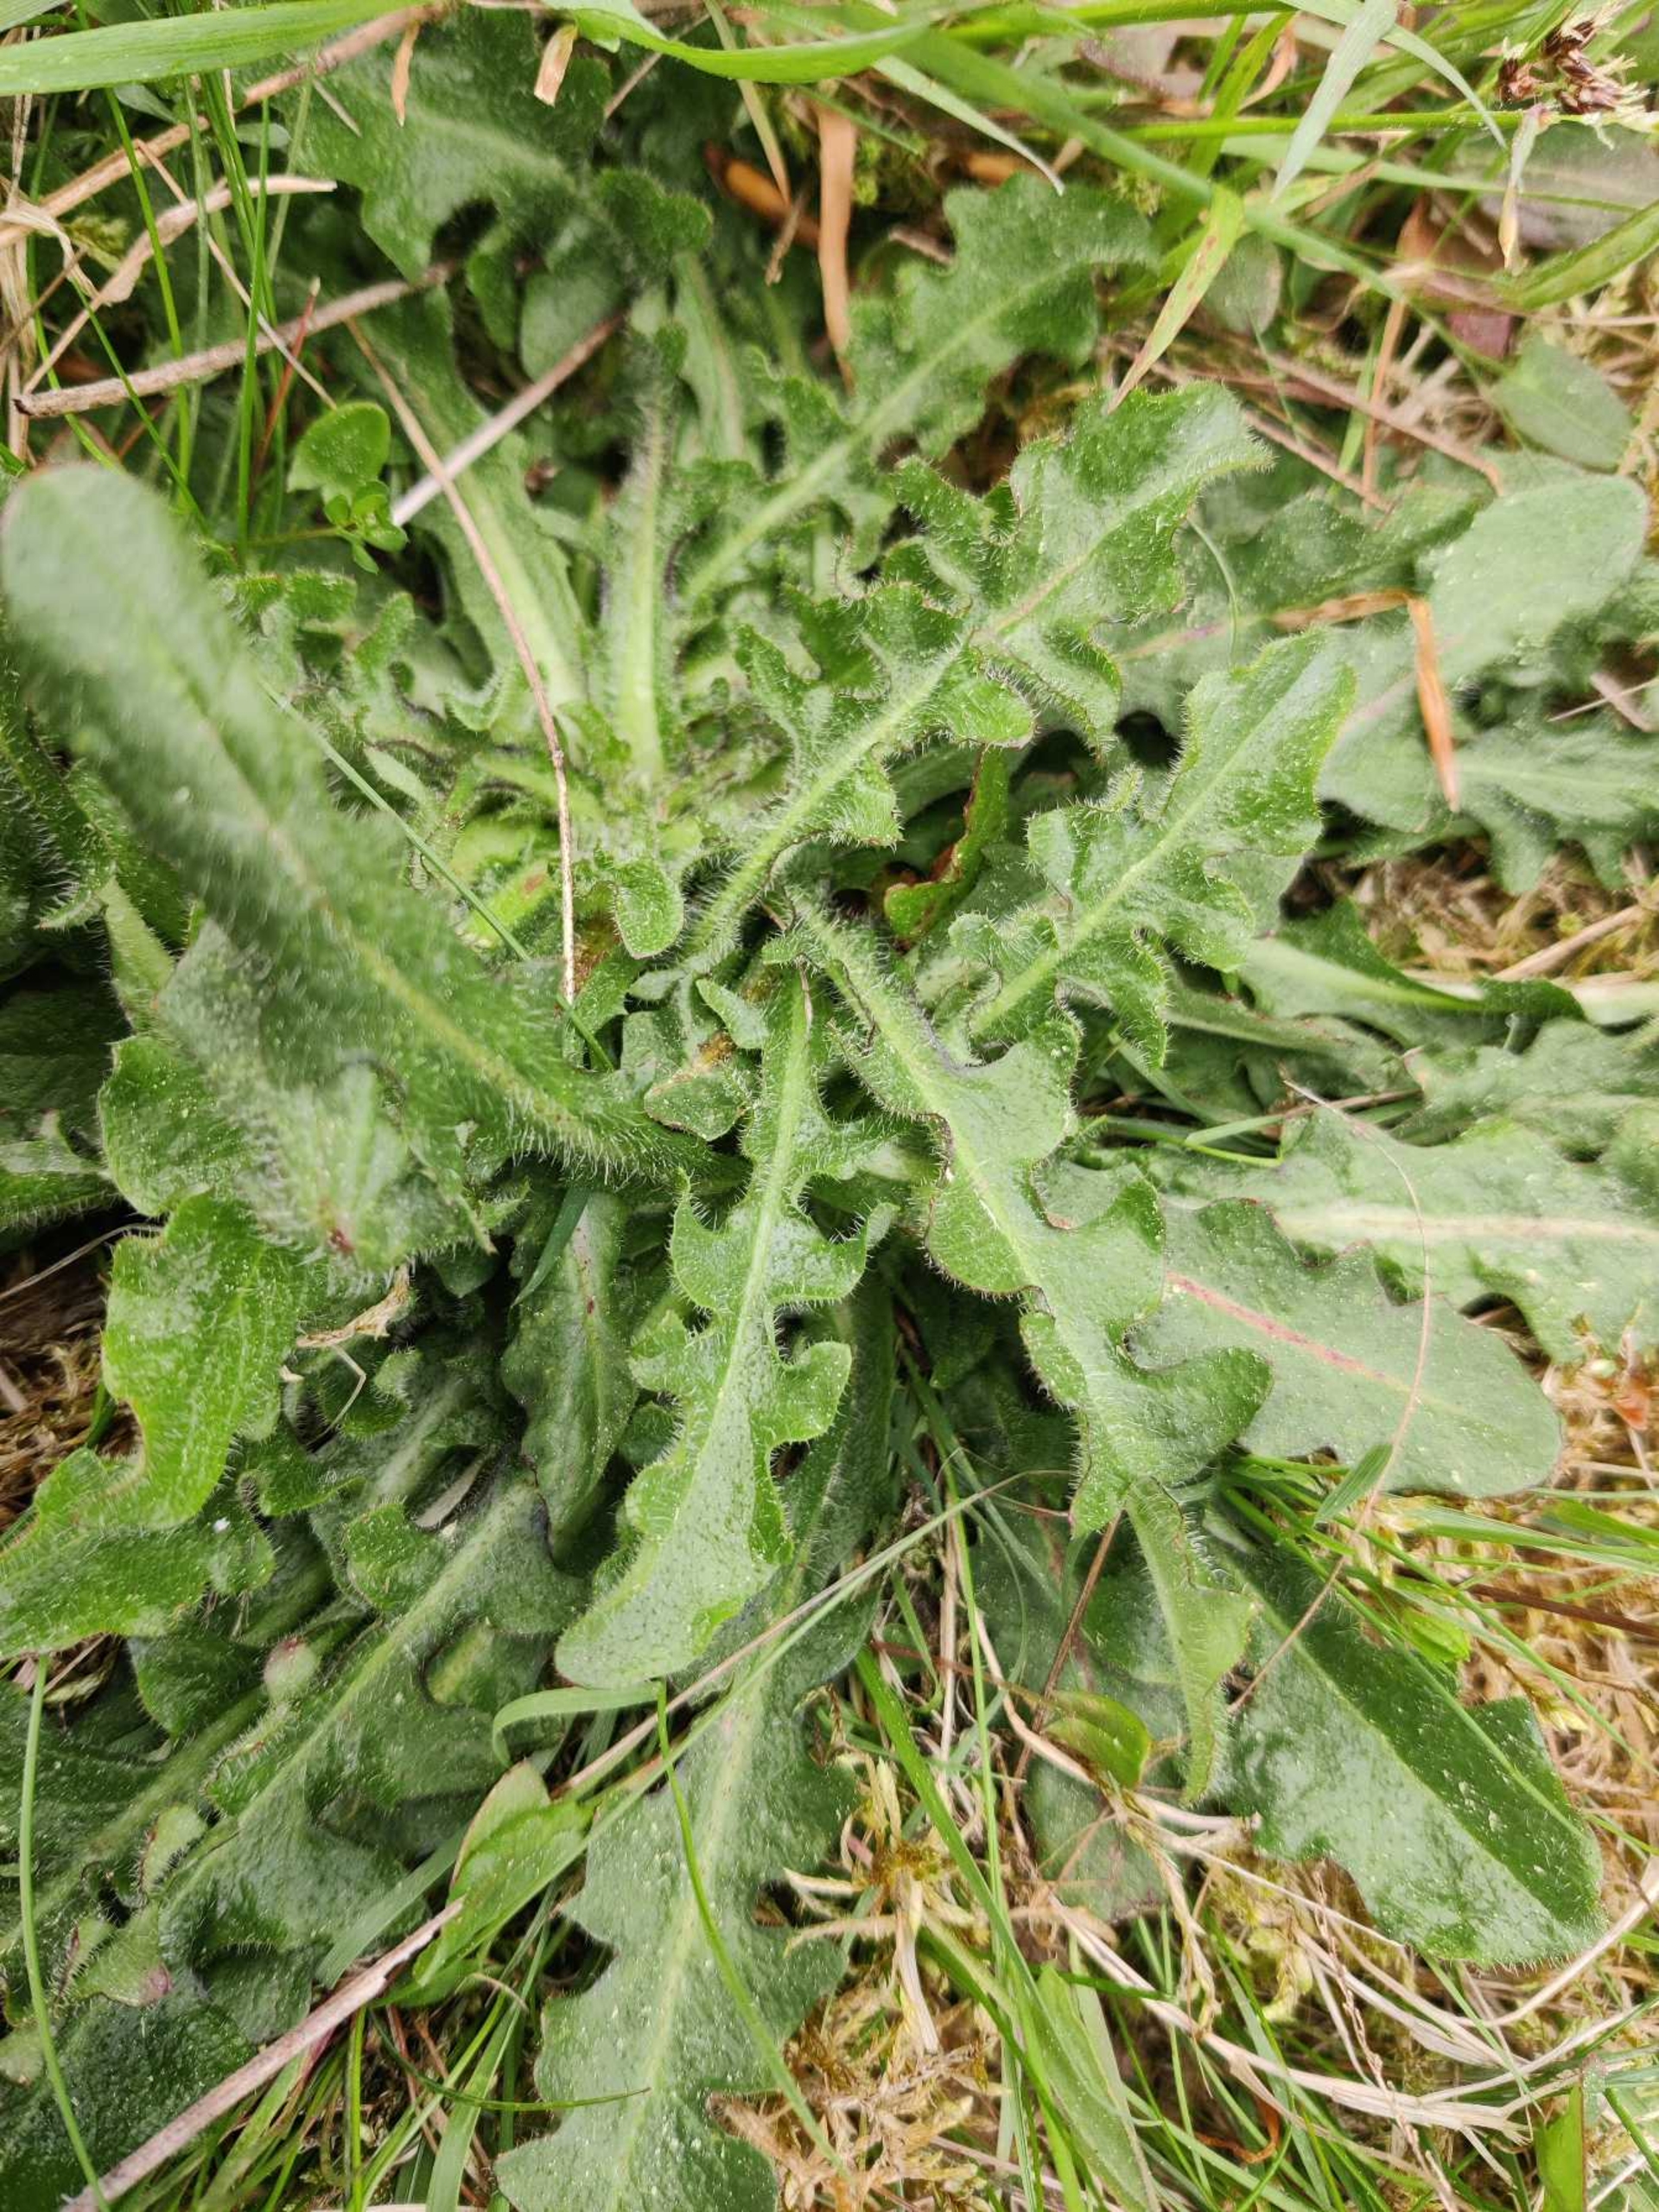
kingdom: Plantae
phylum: Tracheophyta
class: Magnoliopsida
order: Asterales
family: Asteraceae
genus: Hypochaeris
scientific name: Hypochaeris radicata
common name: Almindelig kongepen
